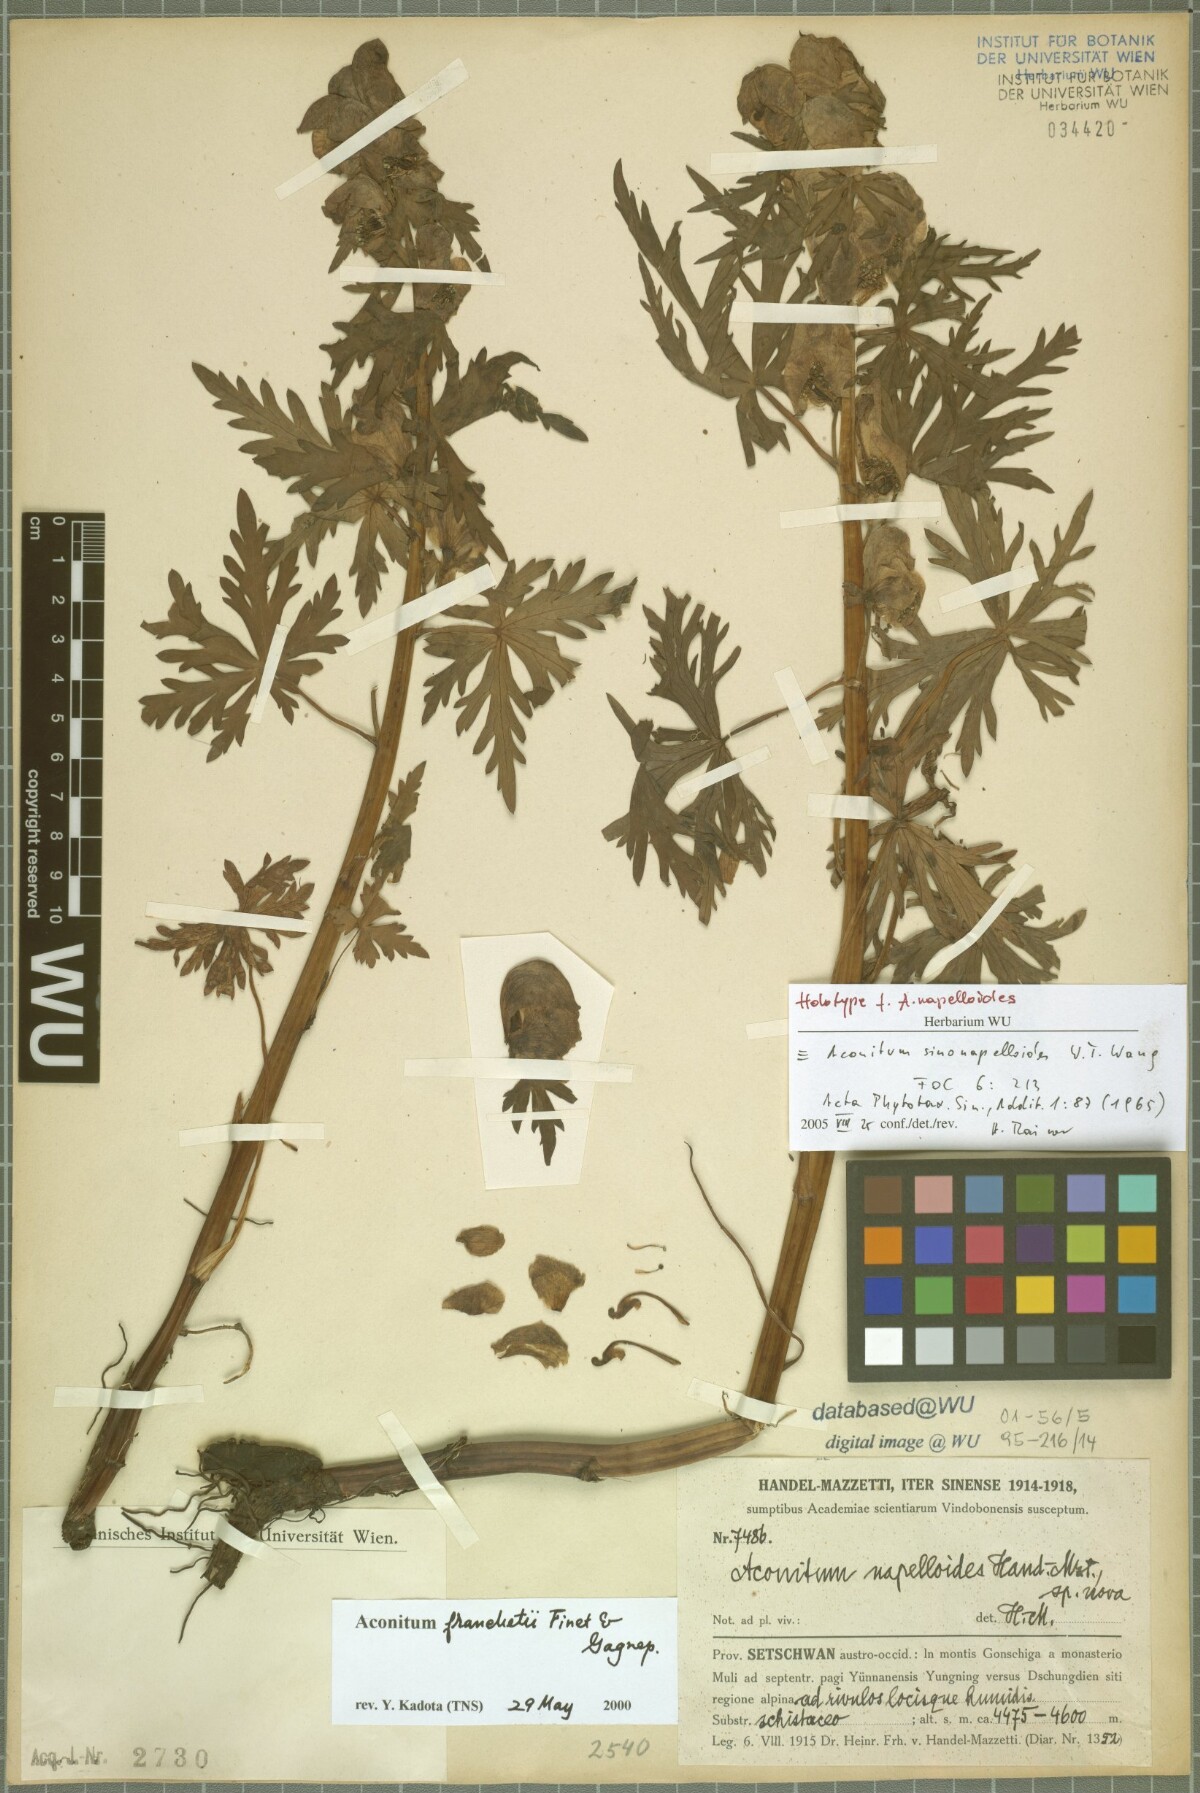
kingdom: Plantae
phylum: Tracheophyta
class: Magnoliopsida
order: Ranunculales
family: Ranunculaceae
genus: Aconitum
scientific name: Aconitum incisofidum
